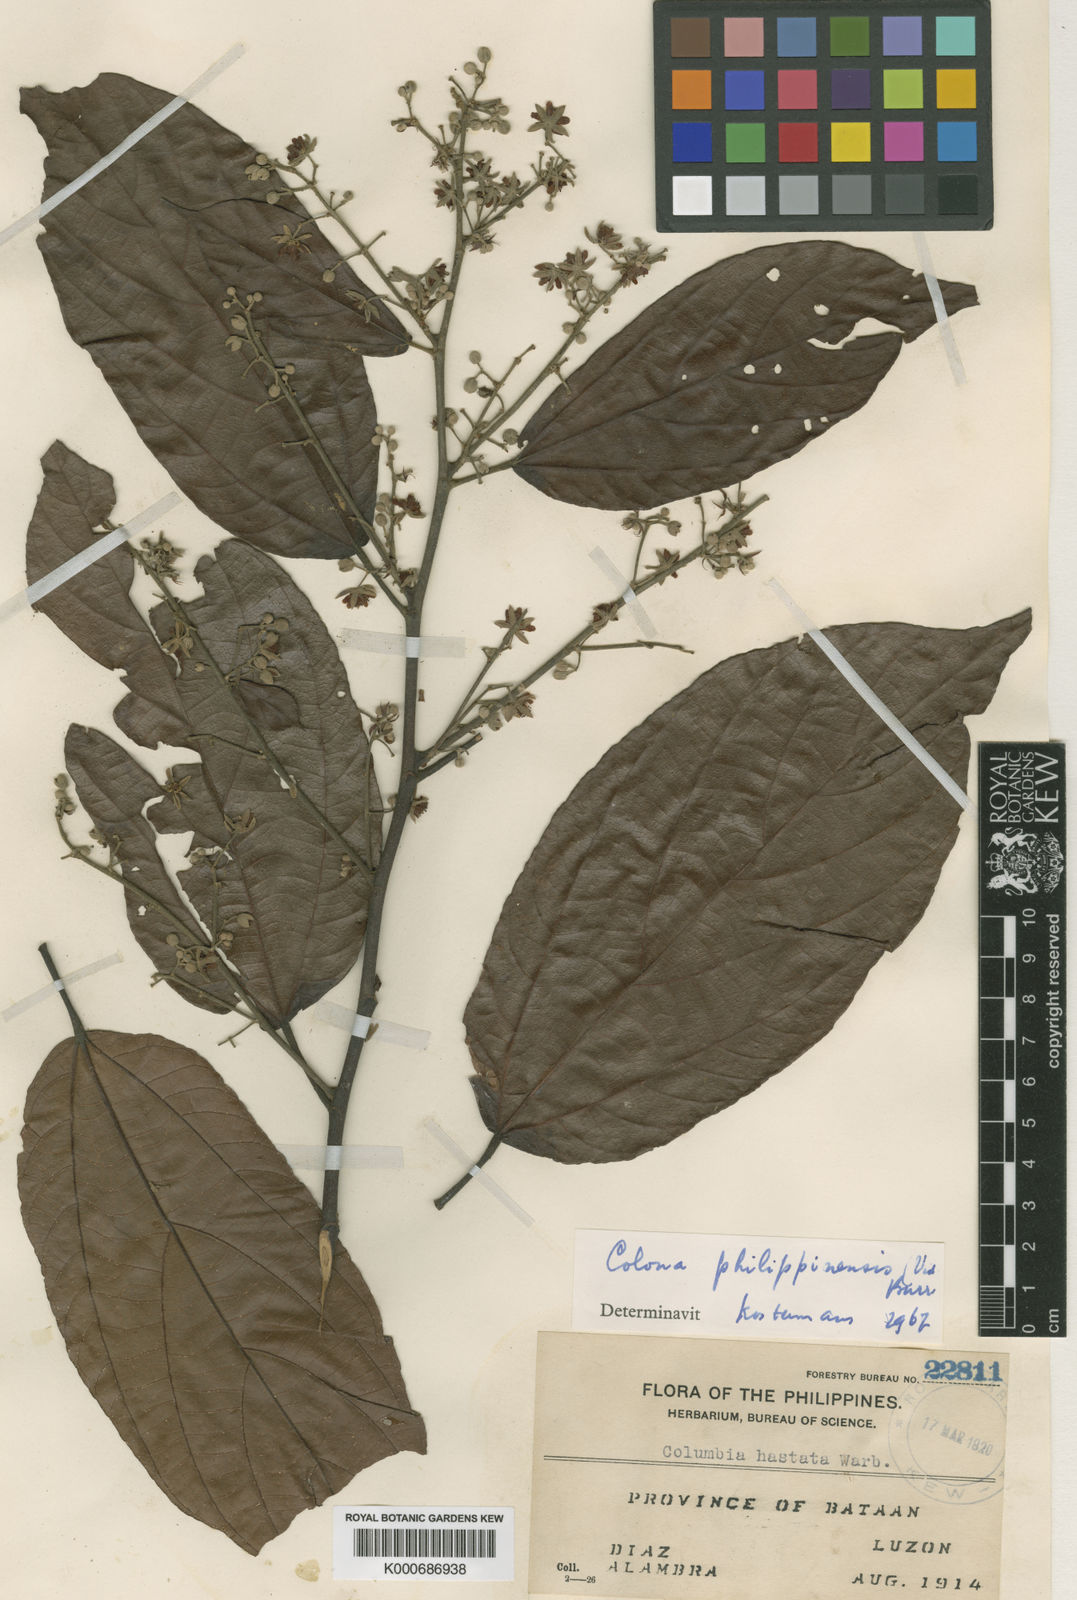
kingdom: Plantae
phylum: Tracheophyta
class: Magnoliopsida
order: Malvales
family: Malvaceae
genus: Colona
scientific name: Colona philippinensis
